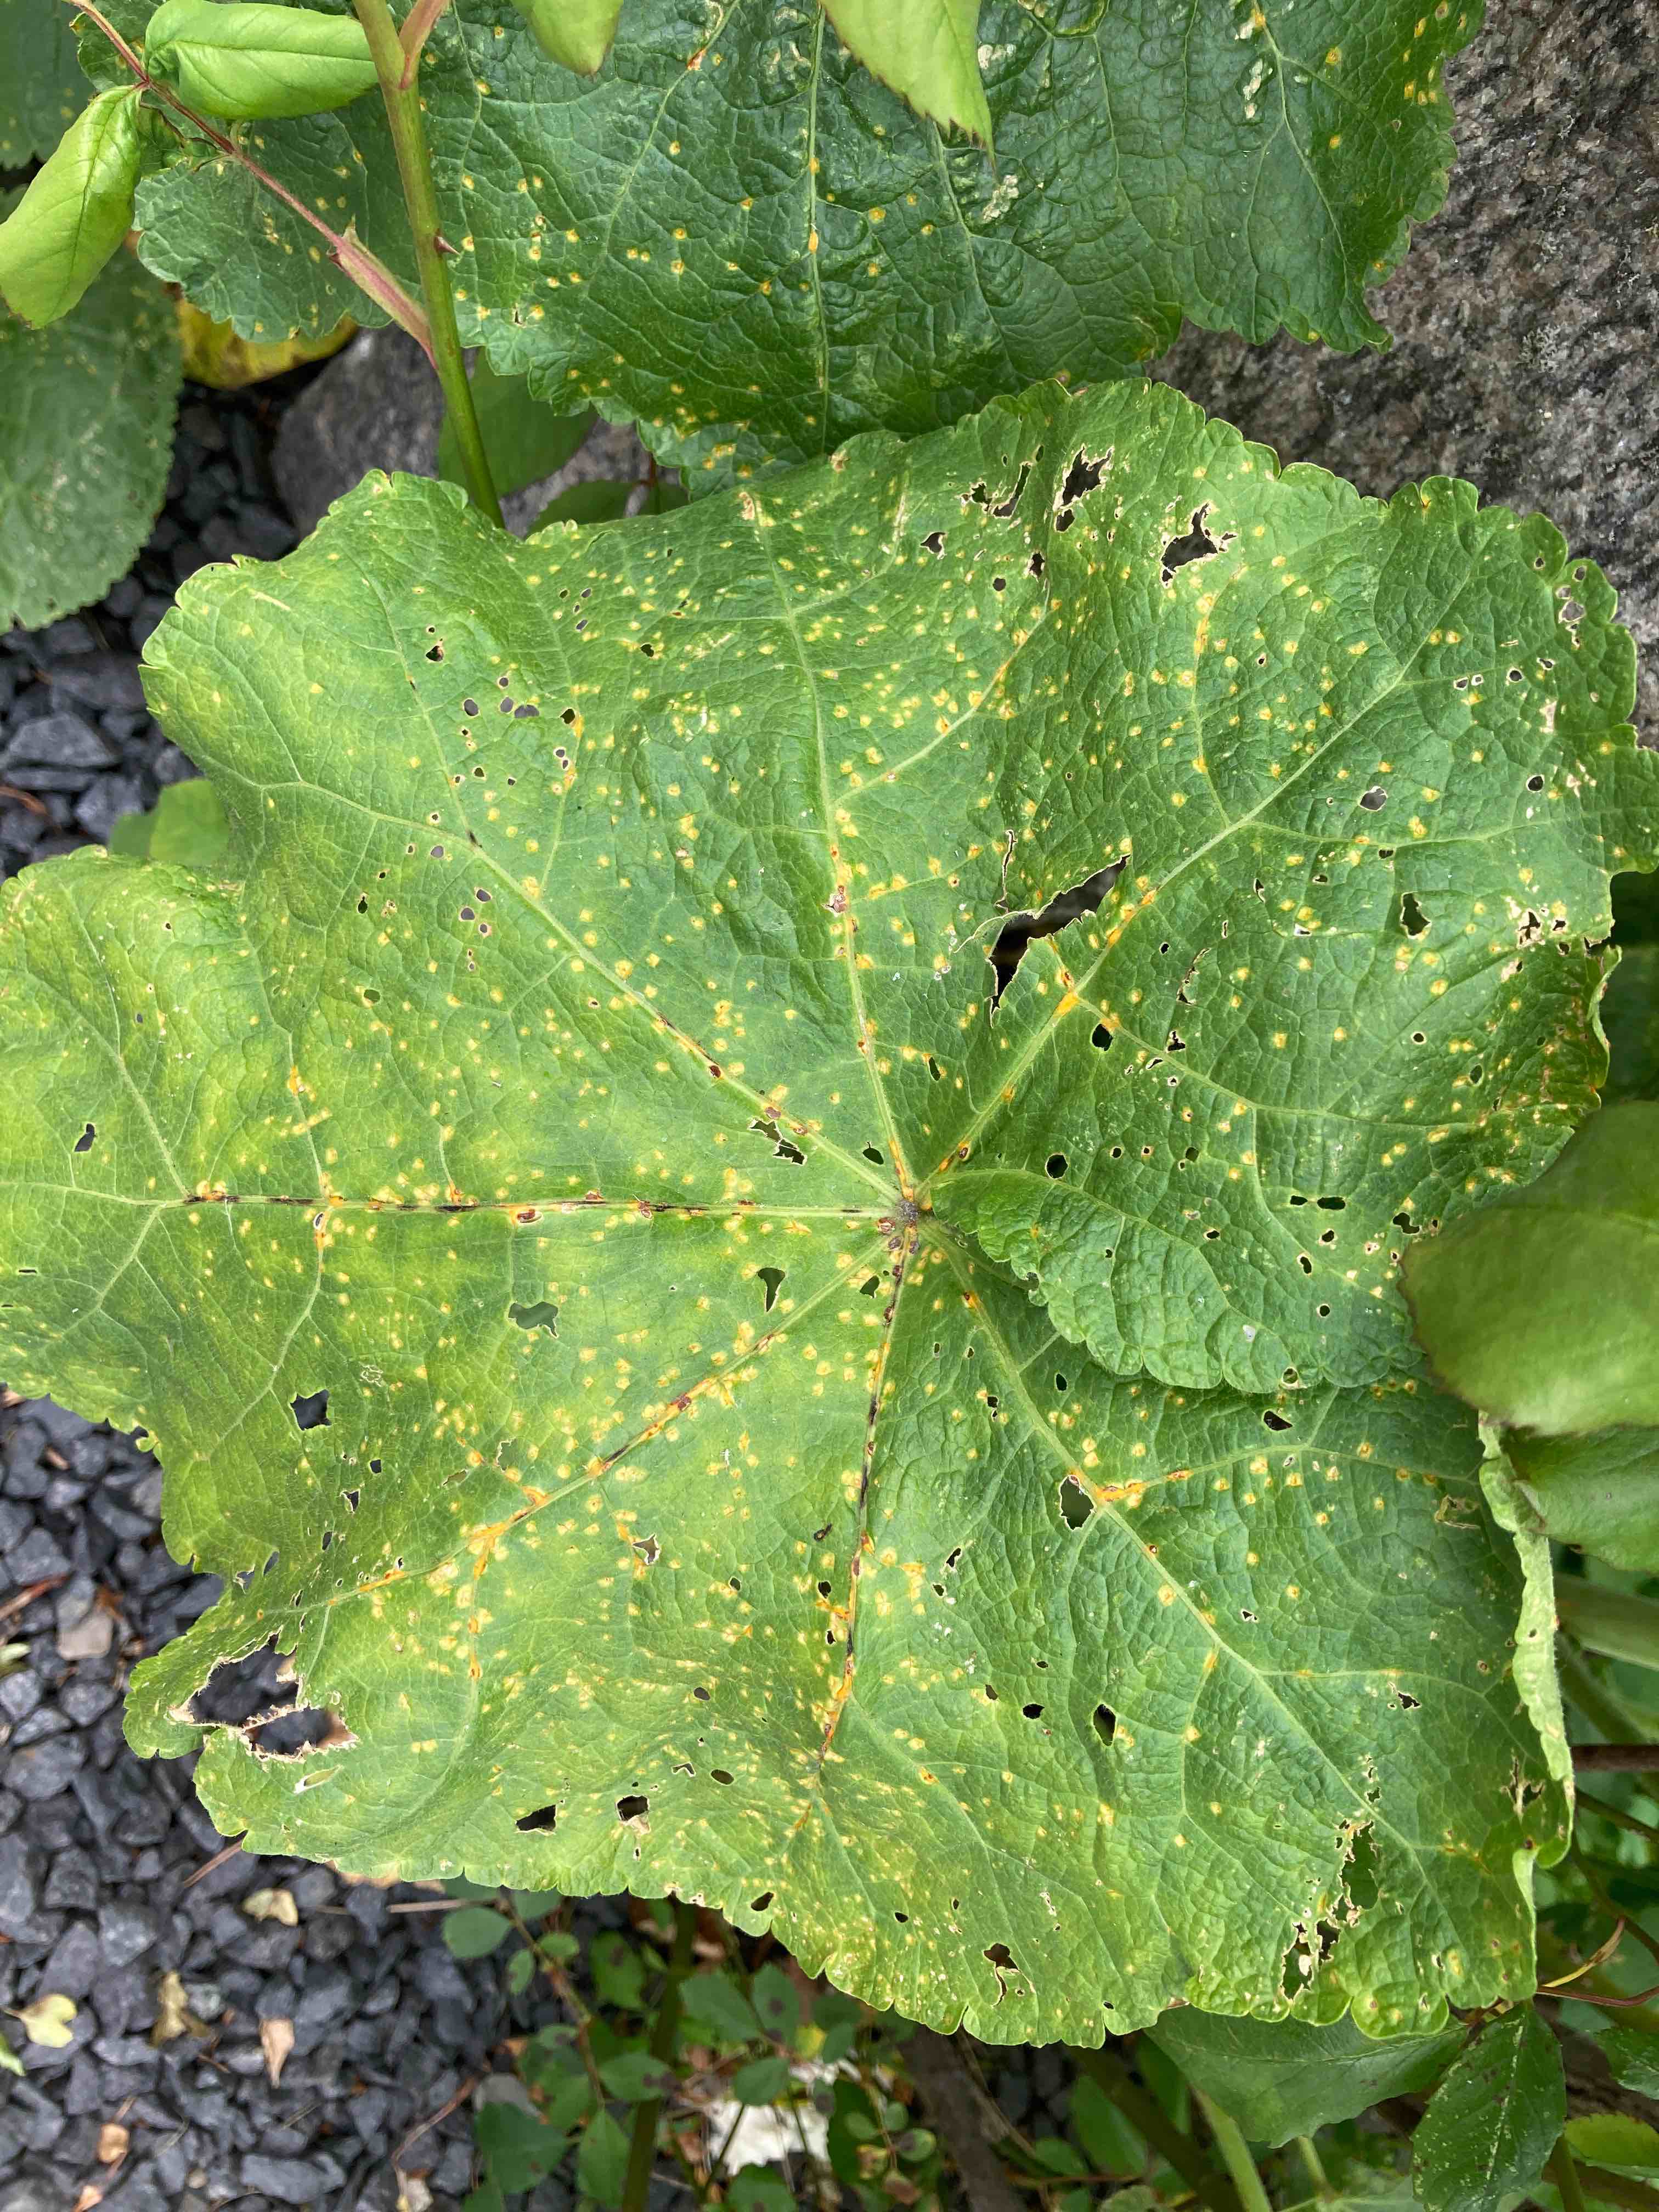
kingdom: Fungi
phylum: Basidiomycota
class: Pucciniomycetes
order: Pucciniales
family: Pucciniaceae
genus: Puccinia
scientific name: Puccinia malvacearum
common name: stokrose-tvecellerust
